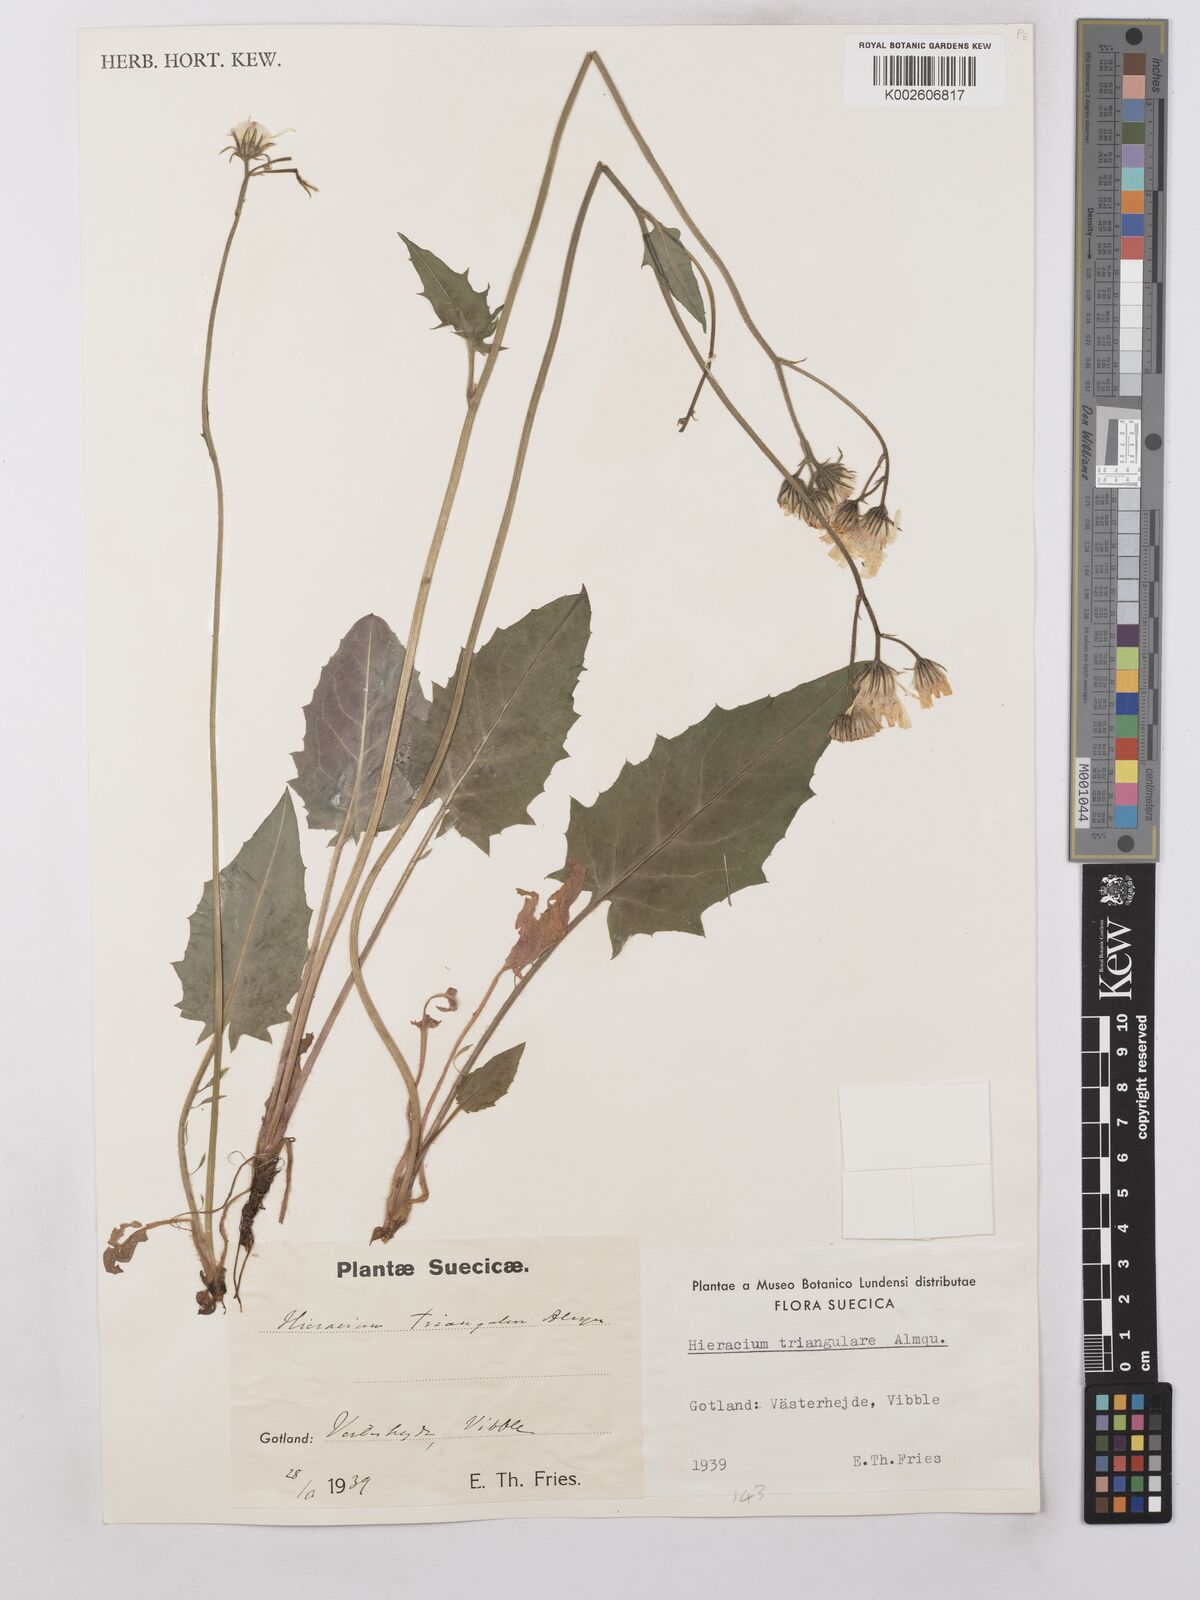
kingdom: Plantae
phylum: Tracheophyta
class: Magnoliopsida
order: Asterales
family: Asteraceae
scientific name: Asteraceae
